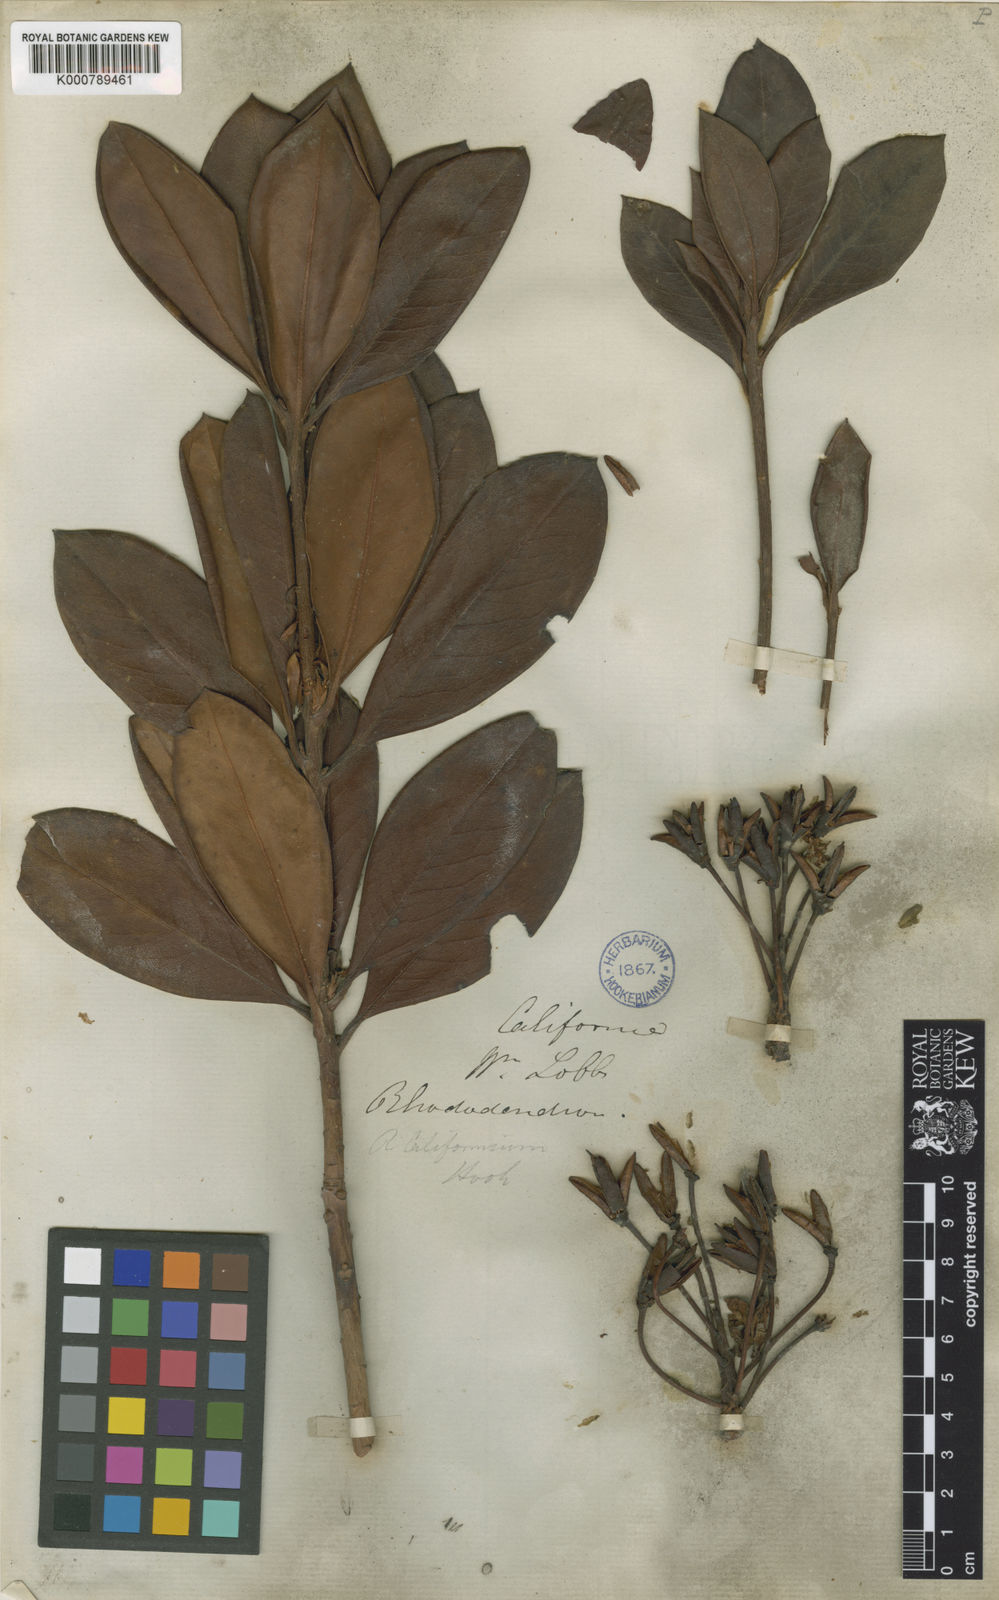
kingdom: Plantae
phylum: Tracheophyta
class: Magnoliopsida
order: Ericales
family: Ericaceae
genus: Rhododendron
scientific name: Rhododendron macrophyllum
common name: California rose bay
